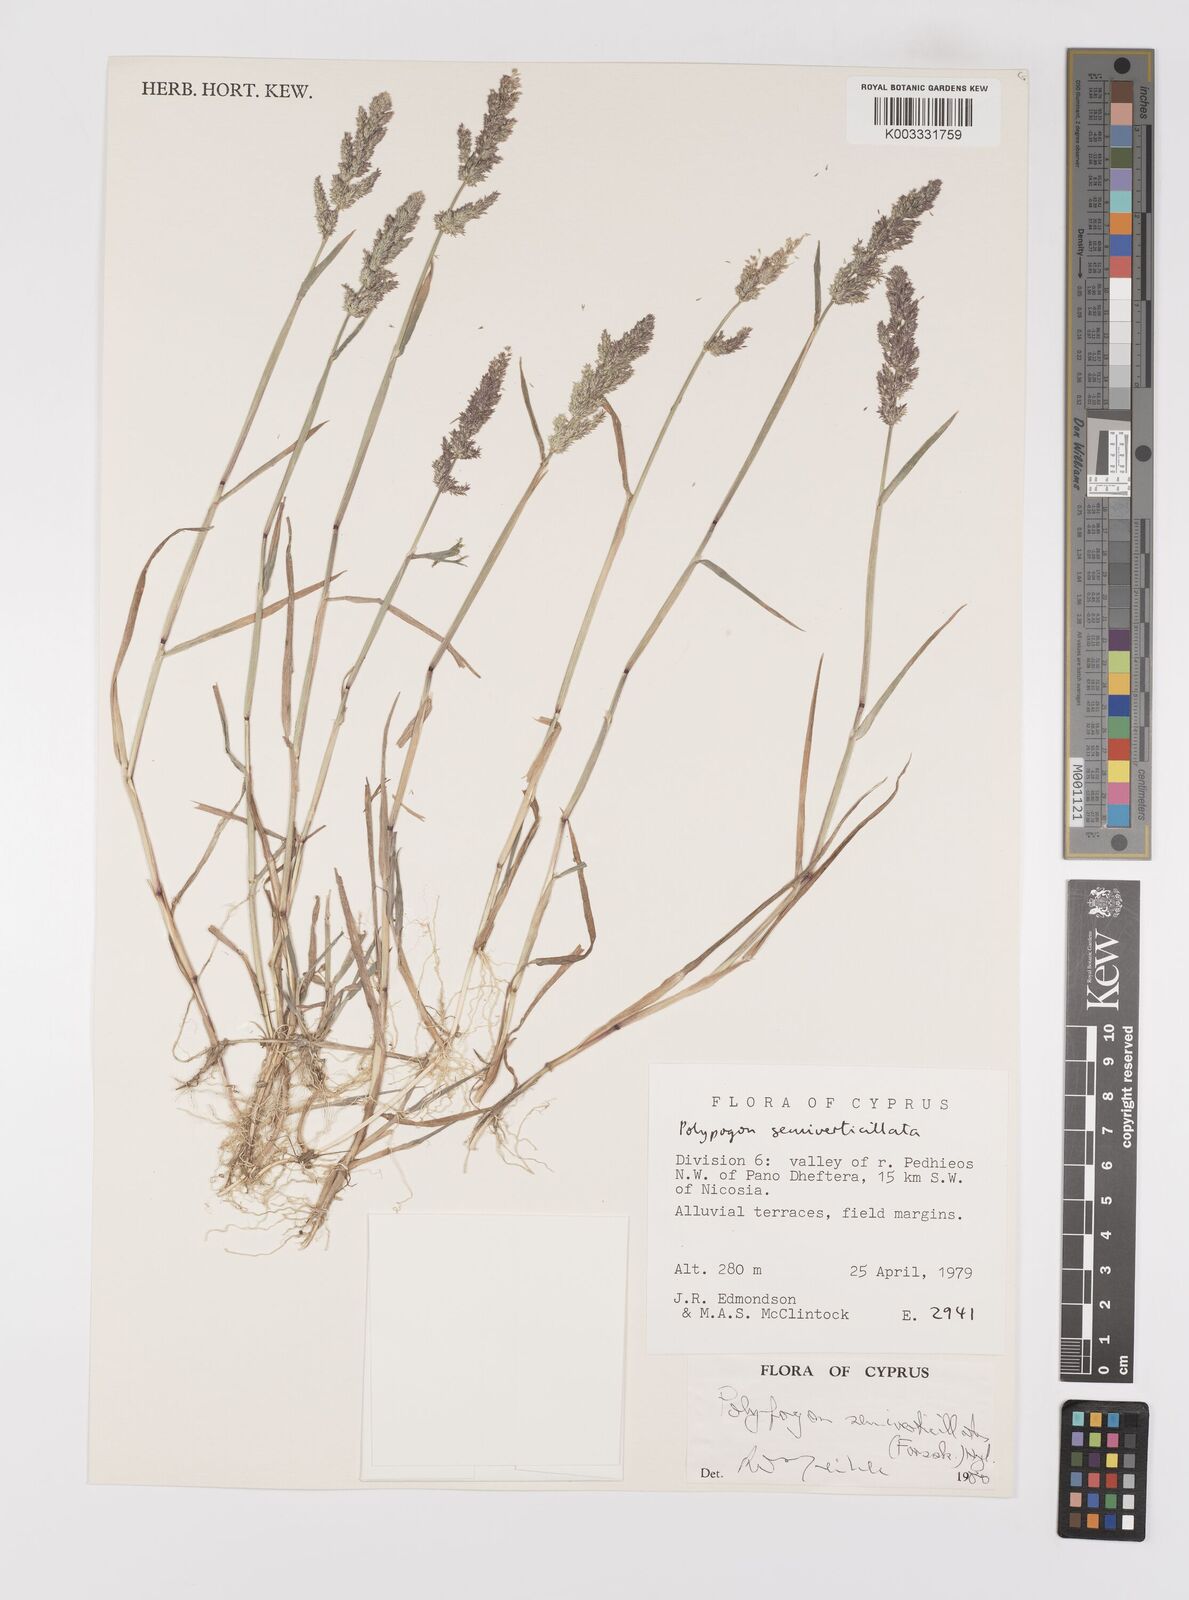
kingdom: Plantae
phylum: Tracheophyta
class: Liliopsida
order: Poales
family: Poaceae
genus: Polypogon
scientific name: Polypogon viridis
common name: Water bent
